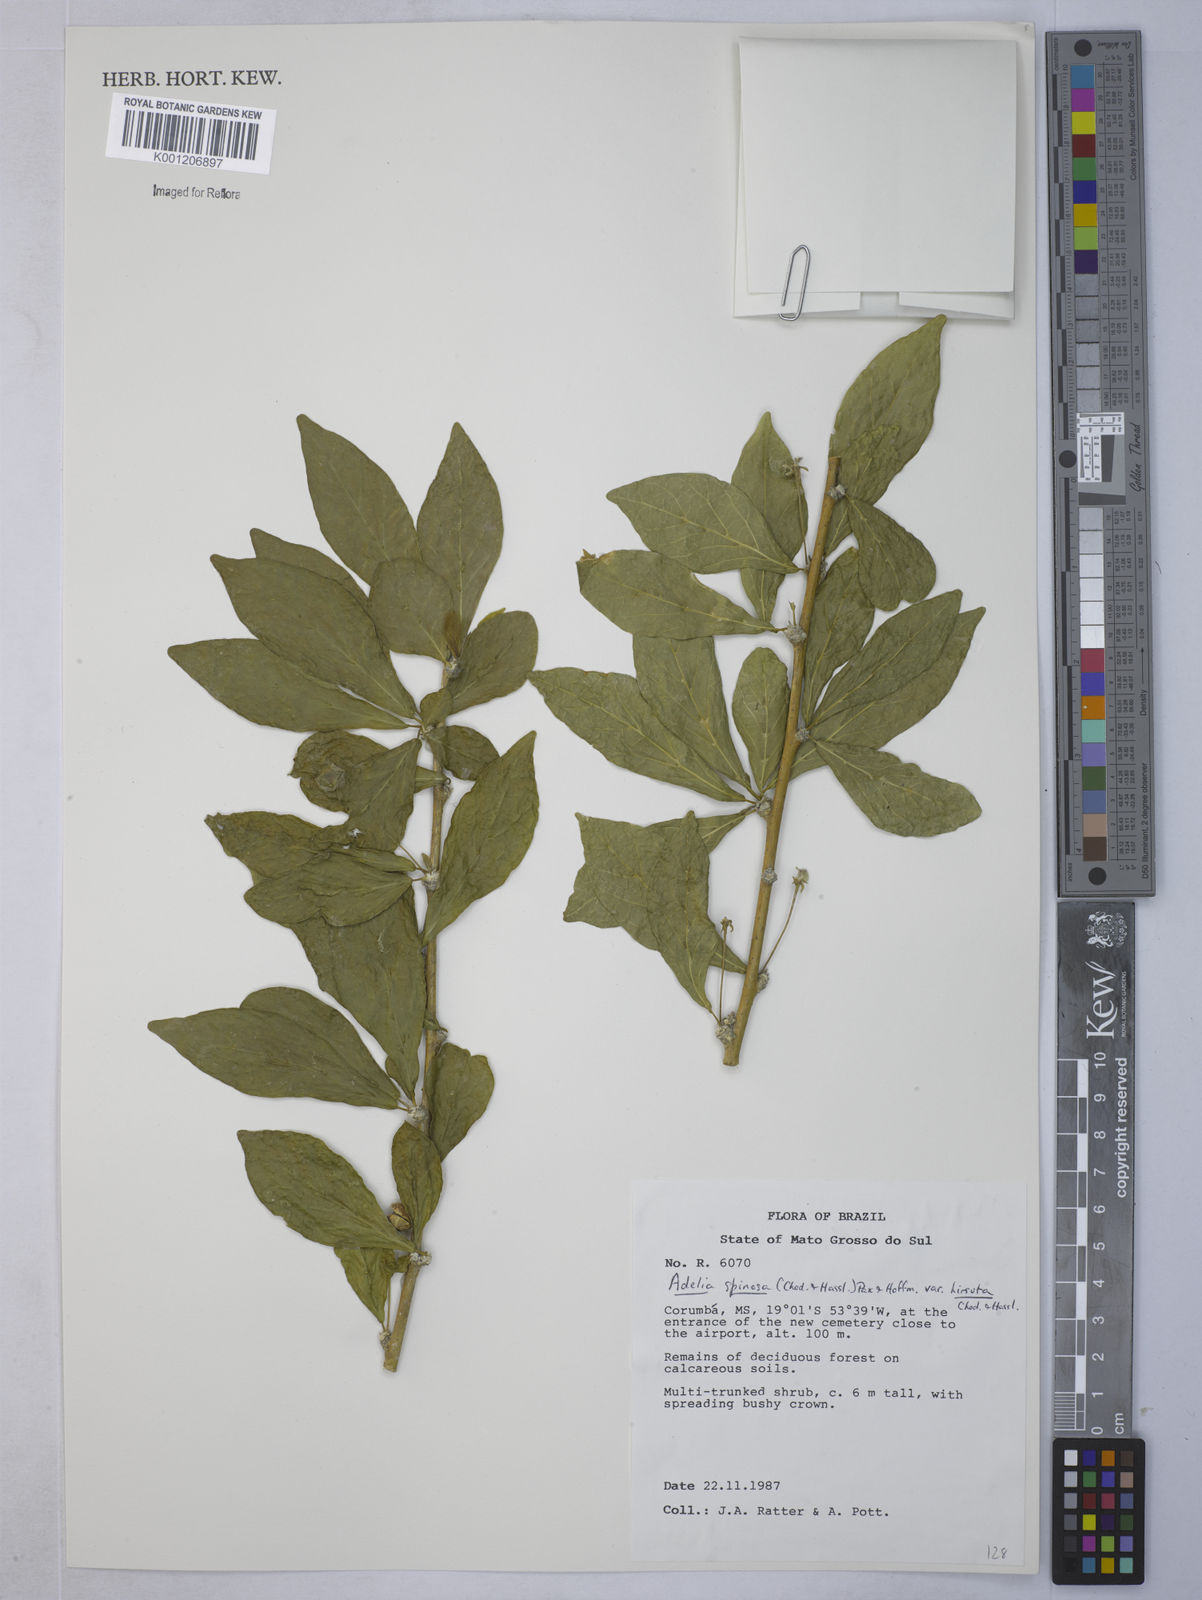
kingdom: Plantae
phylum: Tracheophyta
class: Magnoliopsida
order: Malpighiales
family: Euphorbiaceae
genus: Adelia
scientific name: Adelia membranifolia
